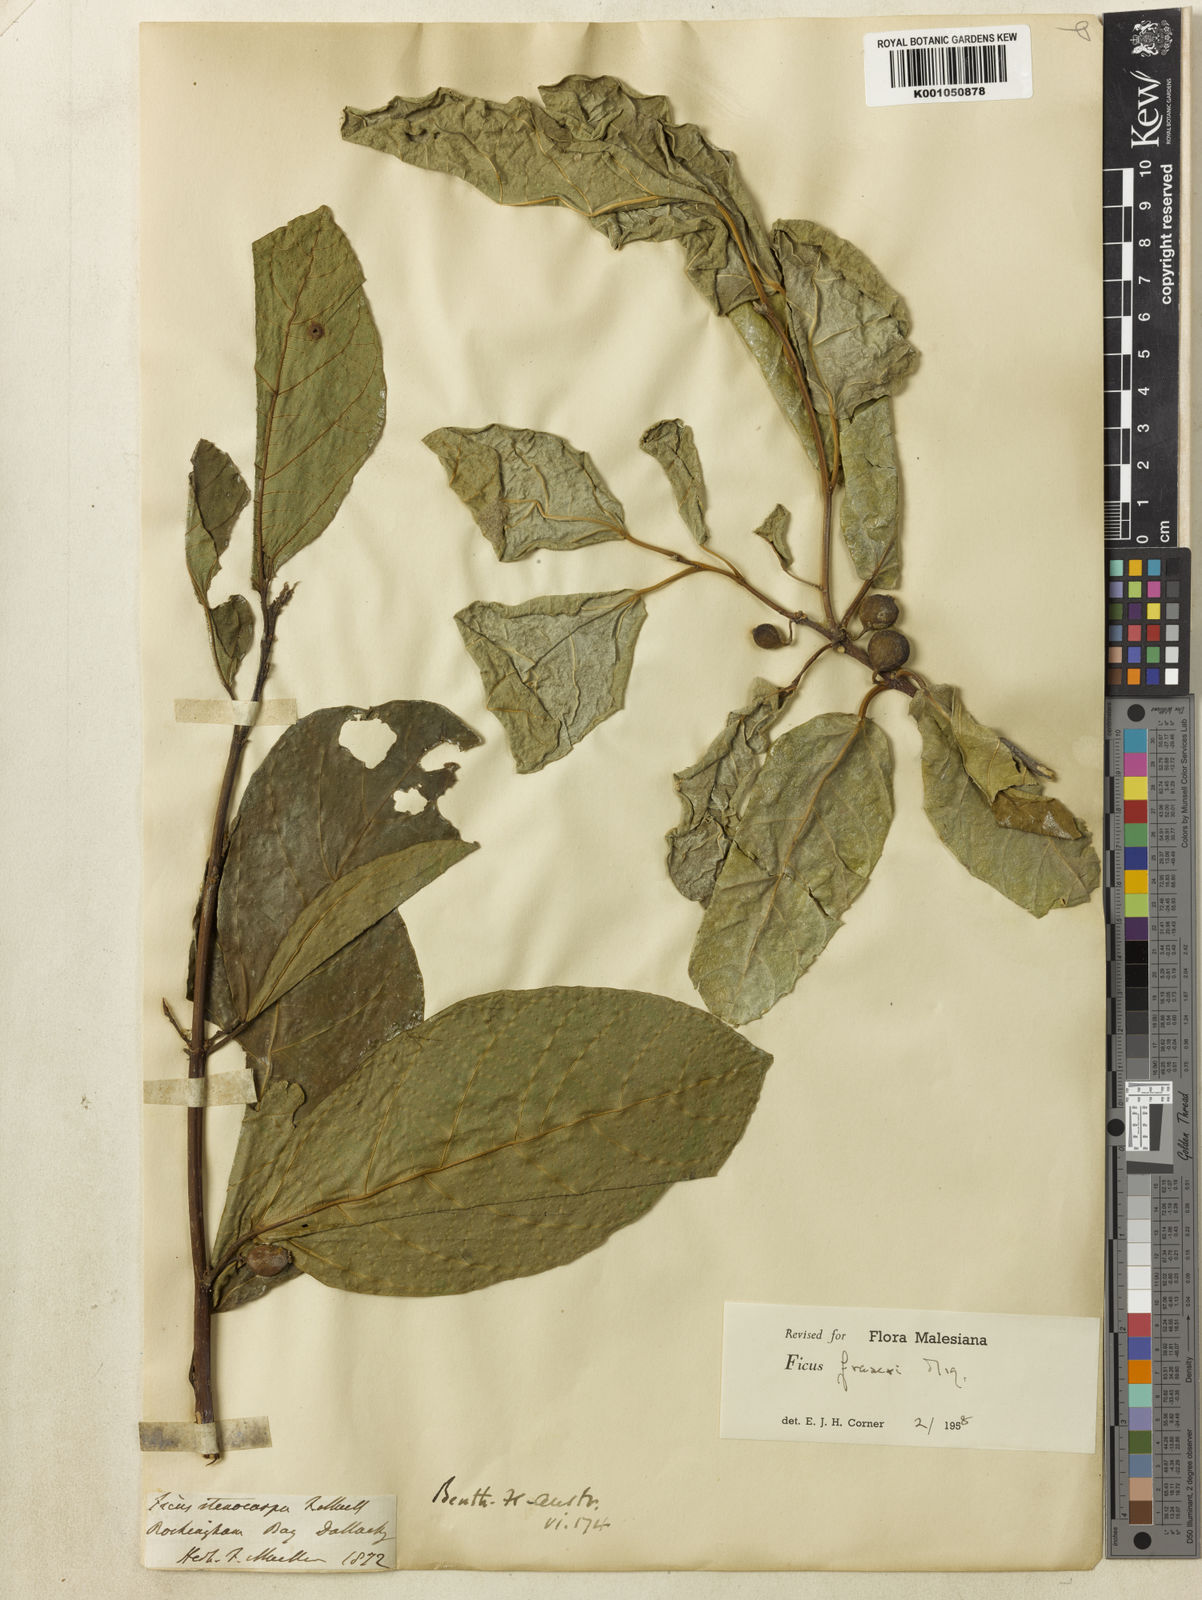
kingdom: Plantae
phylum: Tracheophyta
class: Magnoliopsida
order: Rosales
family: Moraceae
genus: Ficus
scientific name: Ficus fraseri
